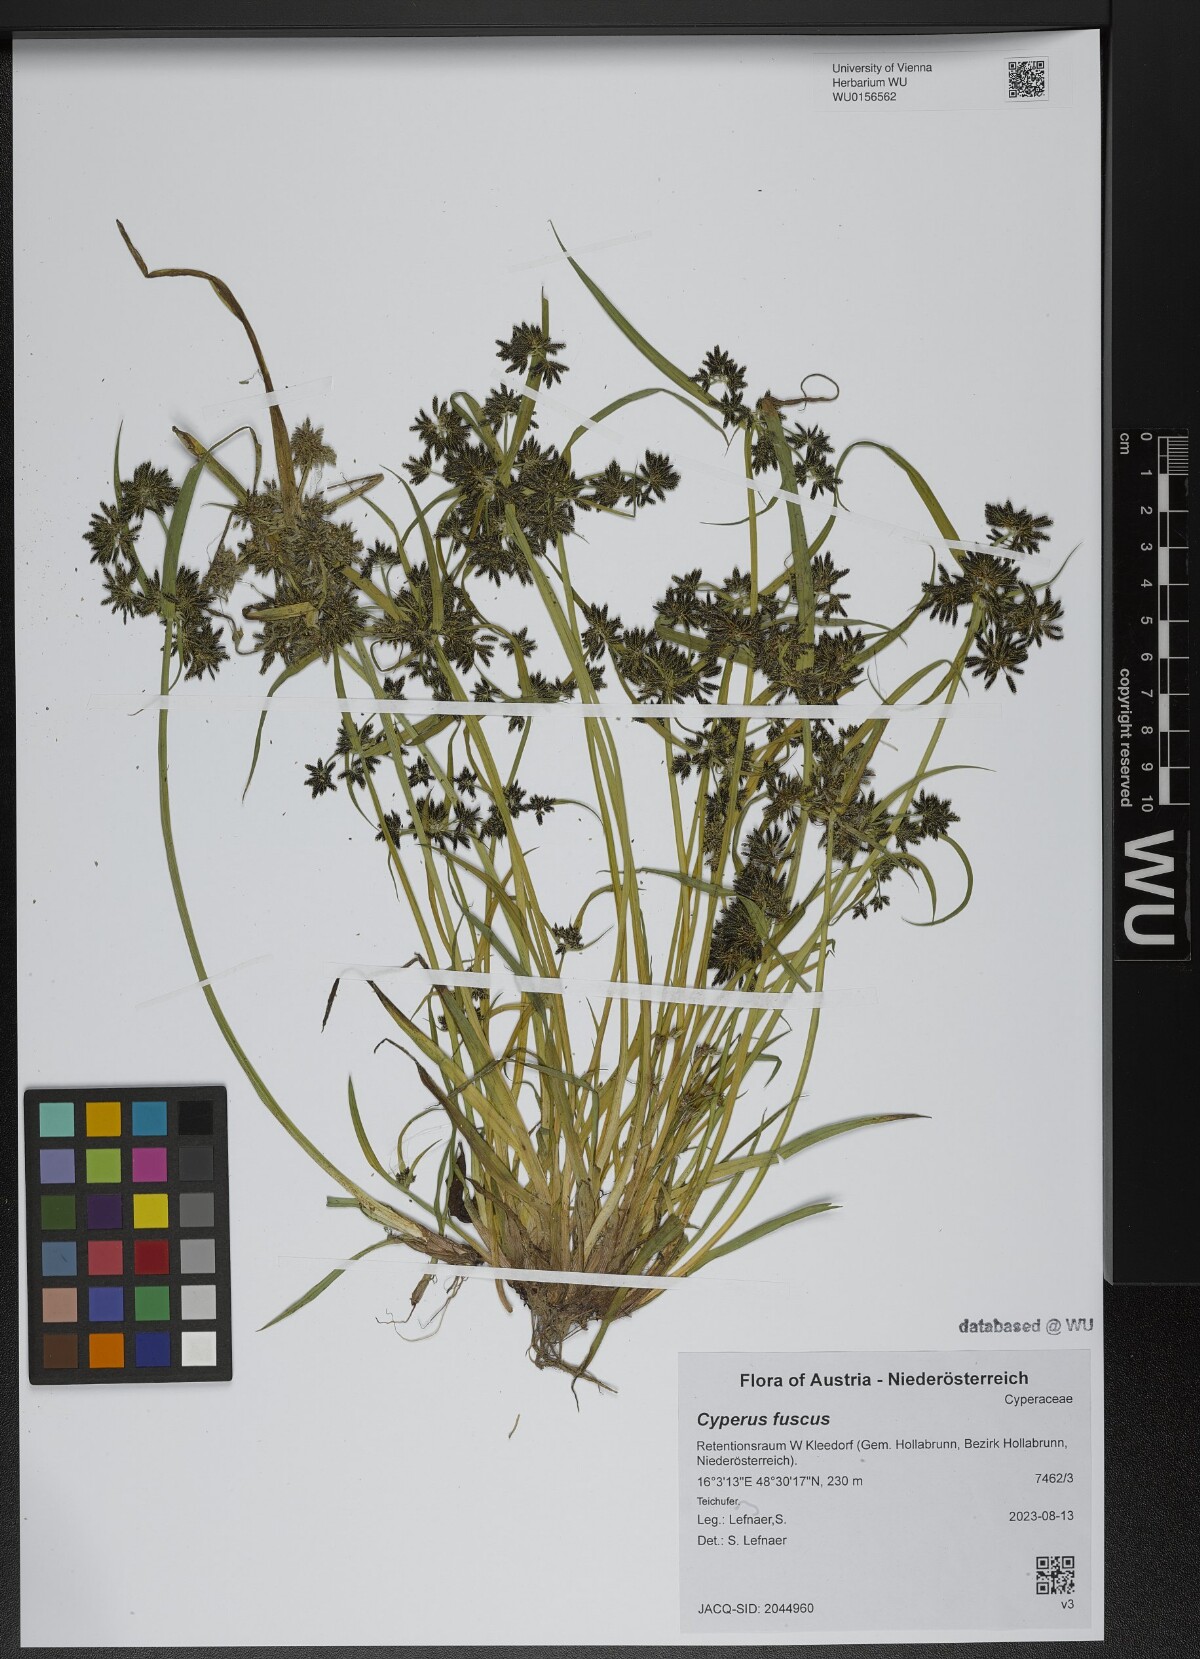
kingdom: Plantae
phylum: Tracheophyta
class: Liliopsida
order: Poales
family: Cyperaceae
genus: Cyperus
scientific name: Cyperus fuscus
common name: Brown galingale
